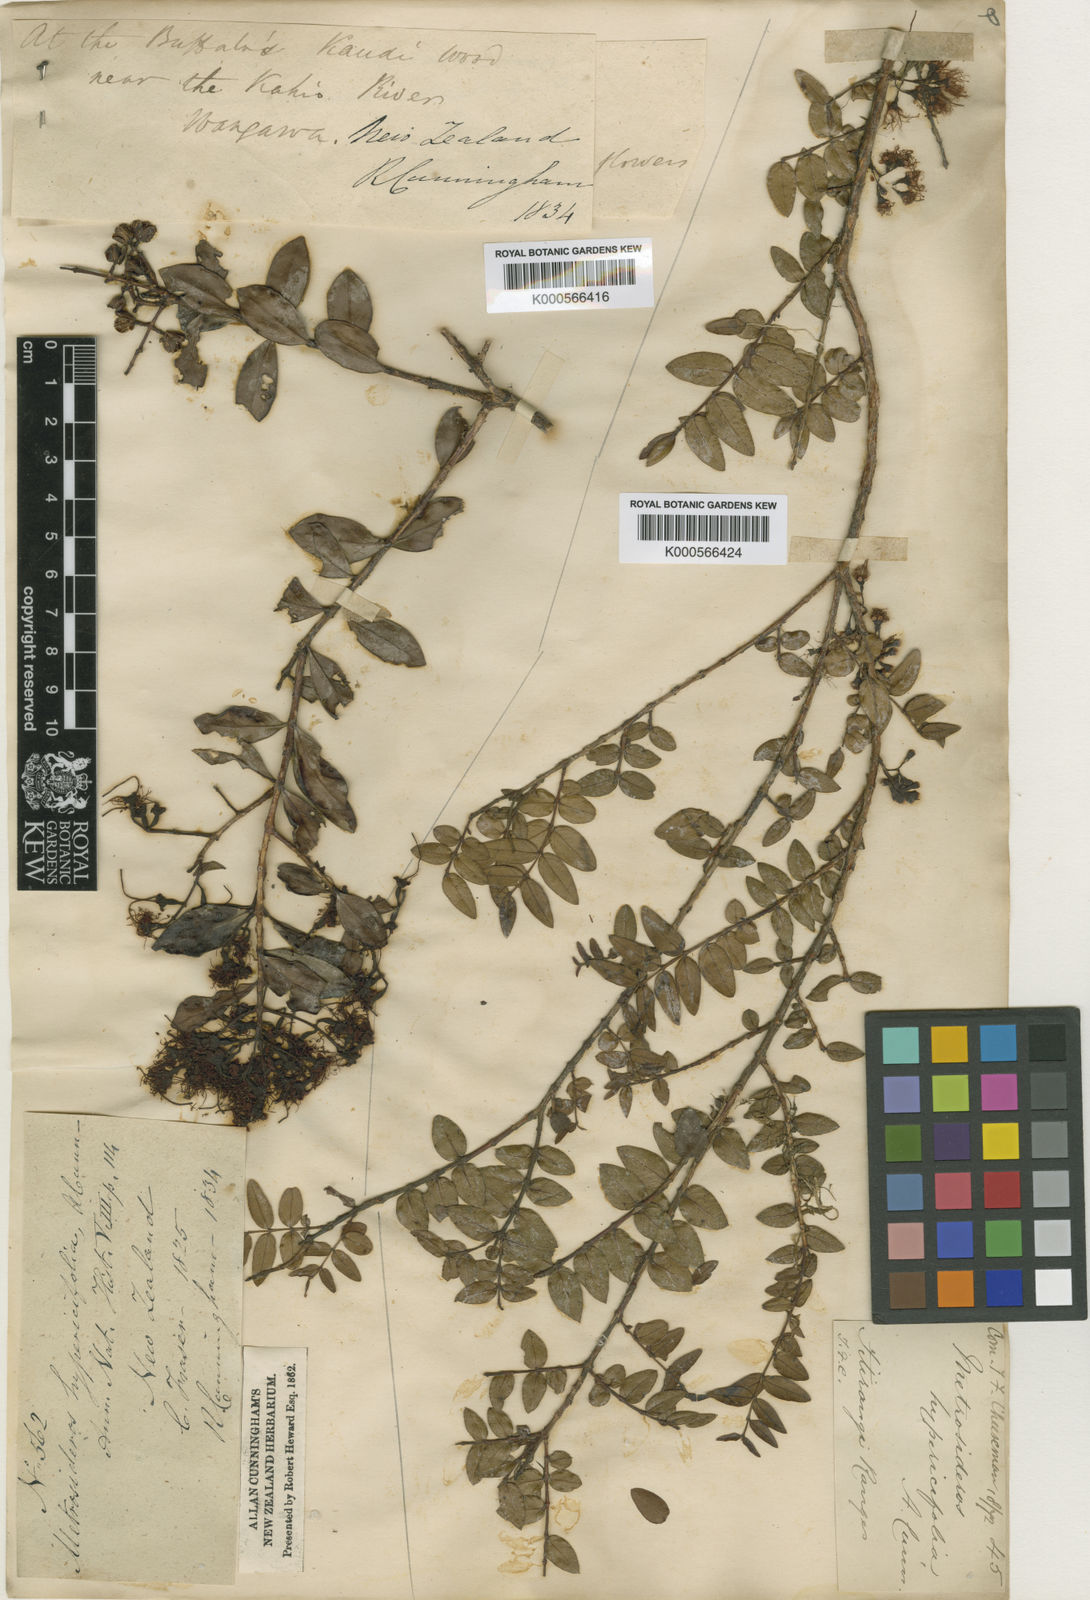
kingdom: Plantae
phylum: Tracheophyta
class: Magnoliopsida
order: Myrtales
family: Myrtaceae
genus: Metrosideros
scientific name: Metrosideros diffusa
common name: Small ratavine
